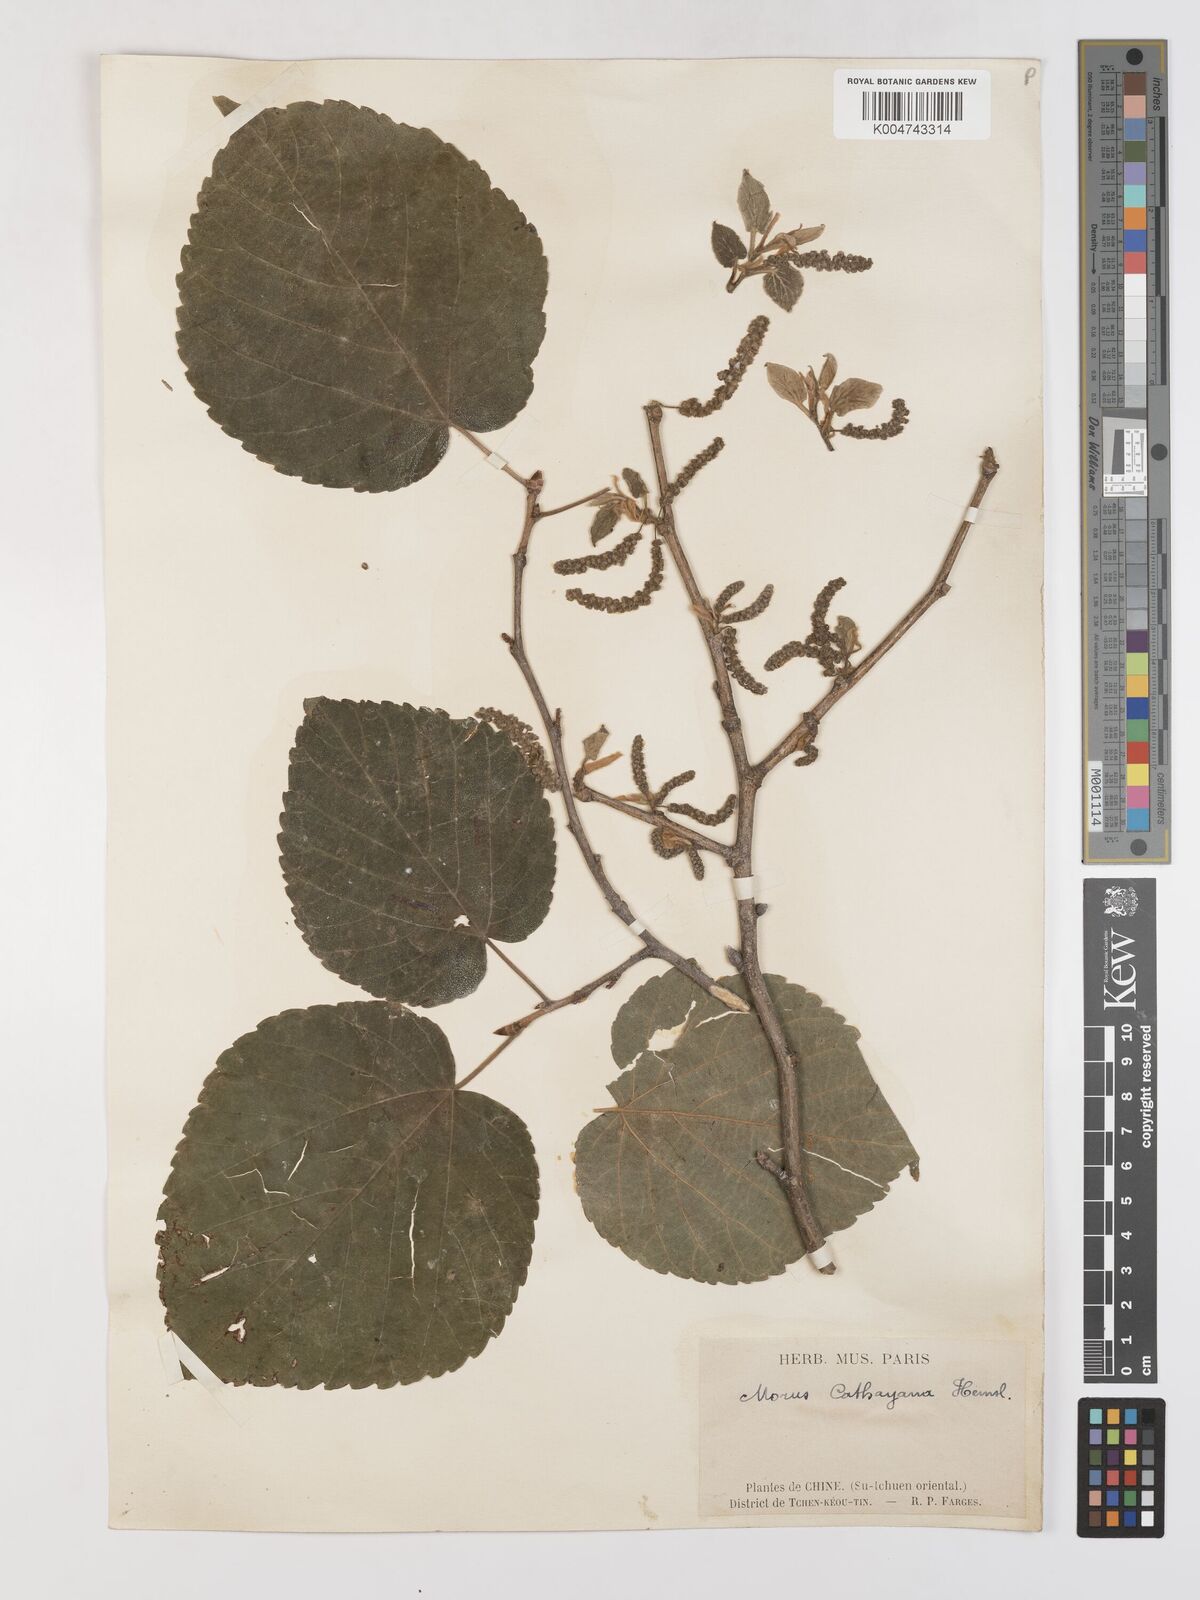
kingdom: Plantae
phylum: Tracheophyta
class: Magnoliopsida
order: Rosales
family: Moraceae
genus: Morus
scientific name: Morus cathayana
